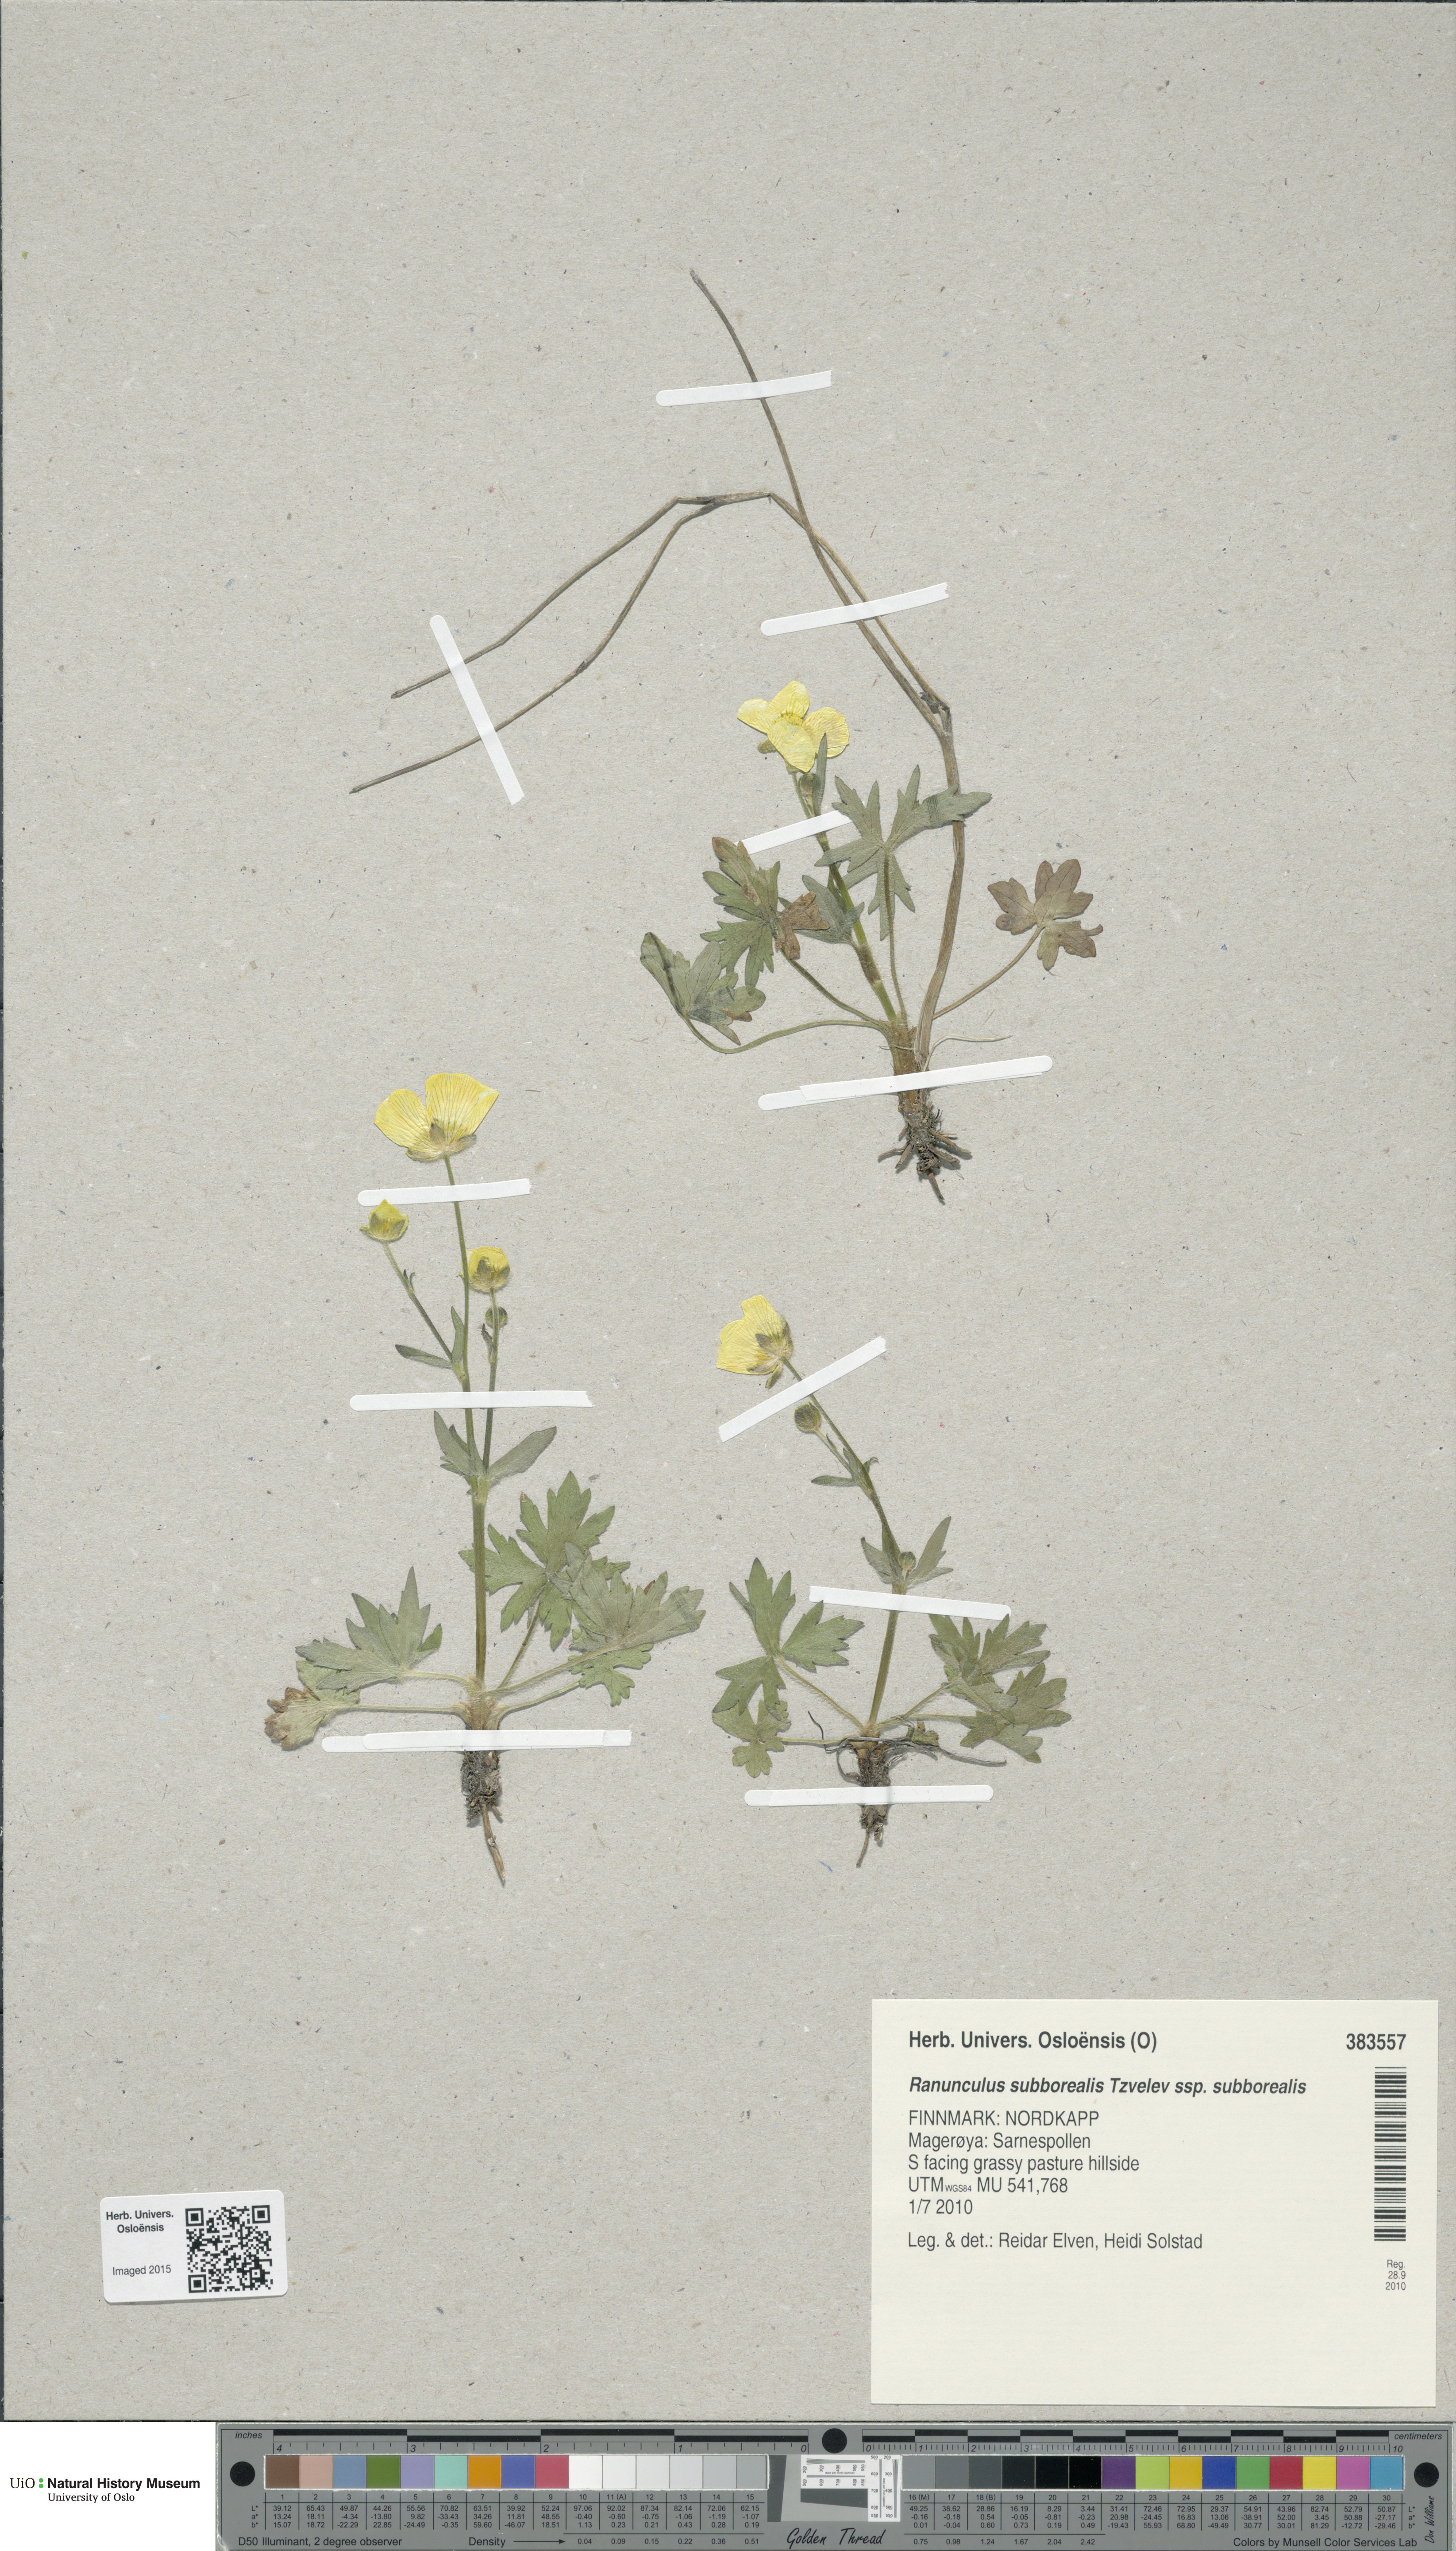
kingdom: Plantae
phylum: Tracheophyta
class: Magnoliopsida
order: Ranunculales
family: Ranunculaceae
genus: Ranunculus
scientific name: Ranunculus propinquus
